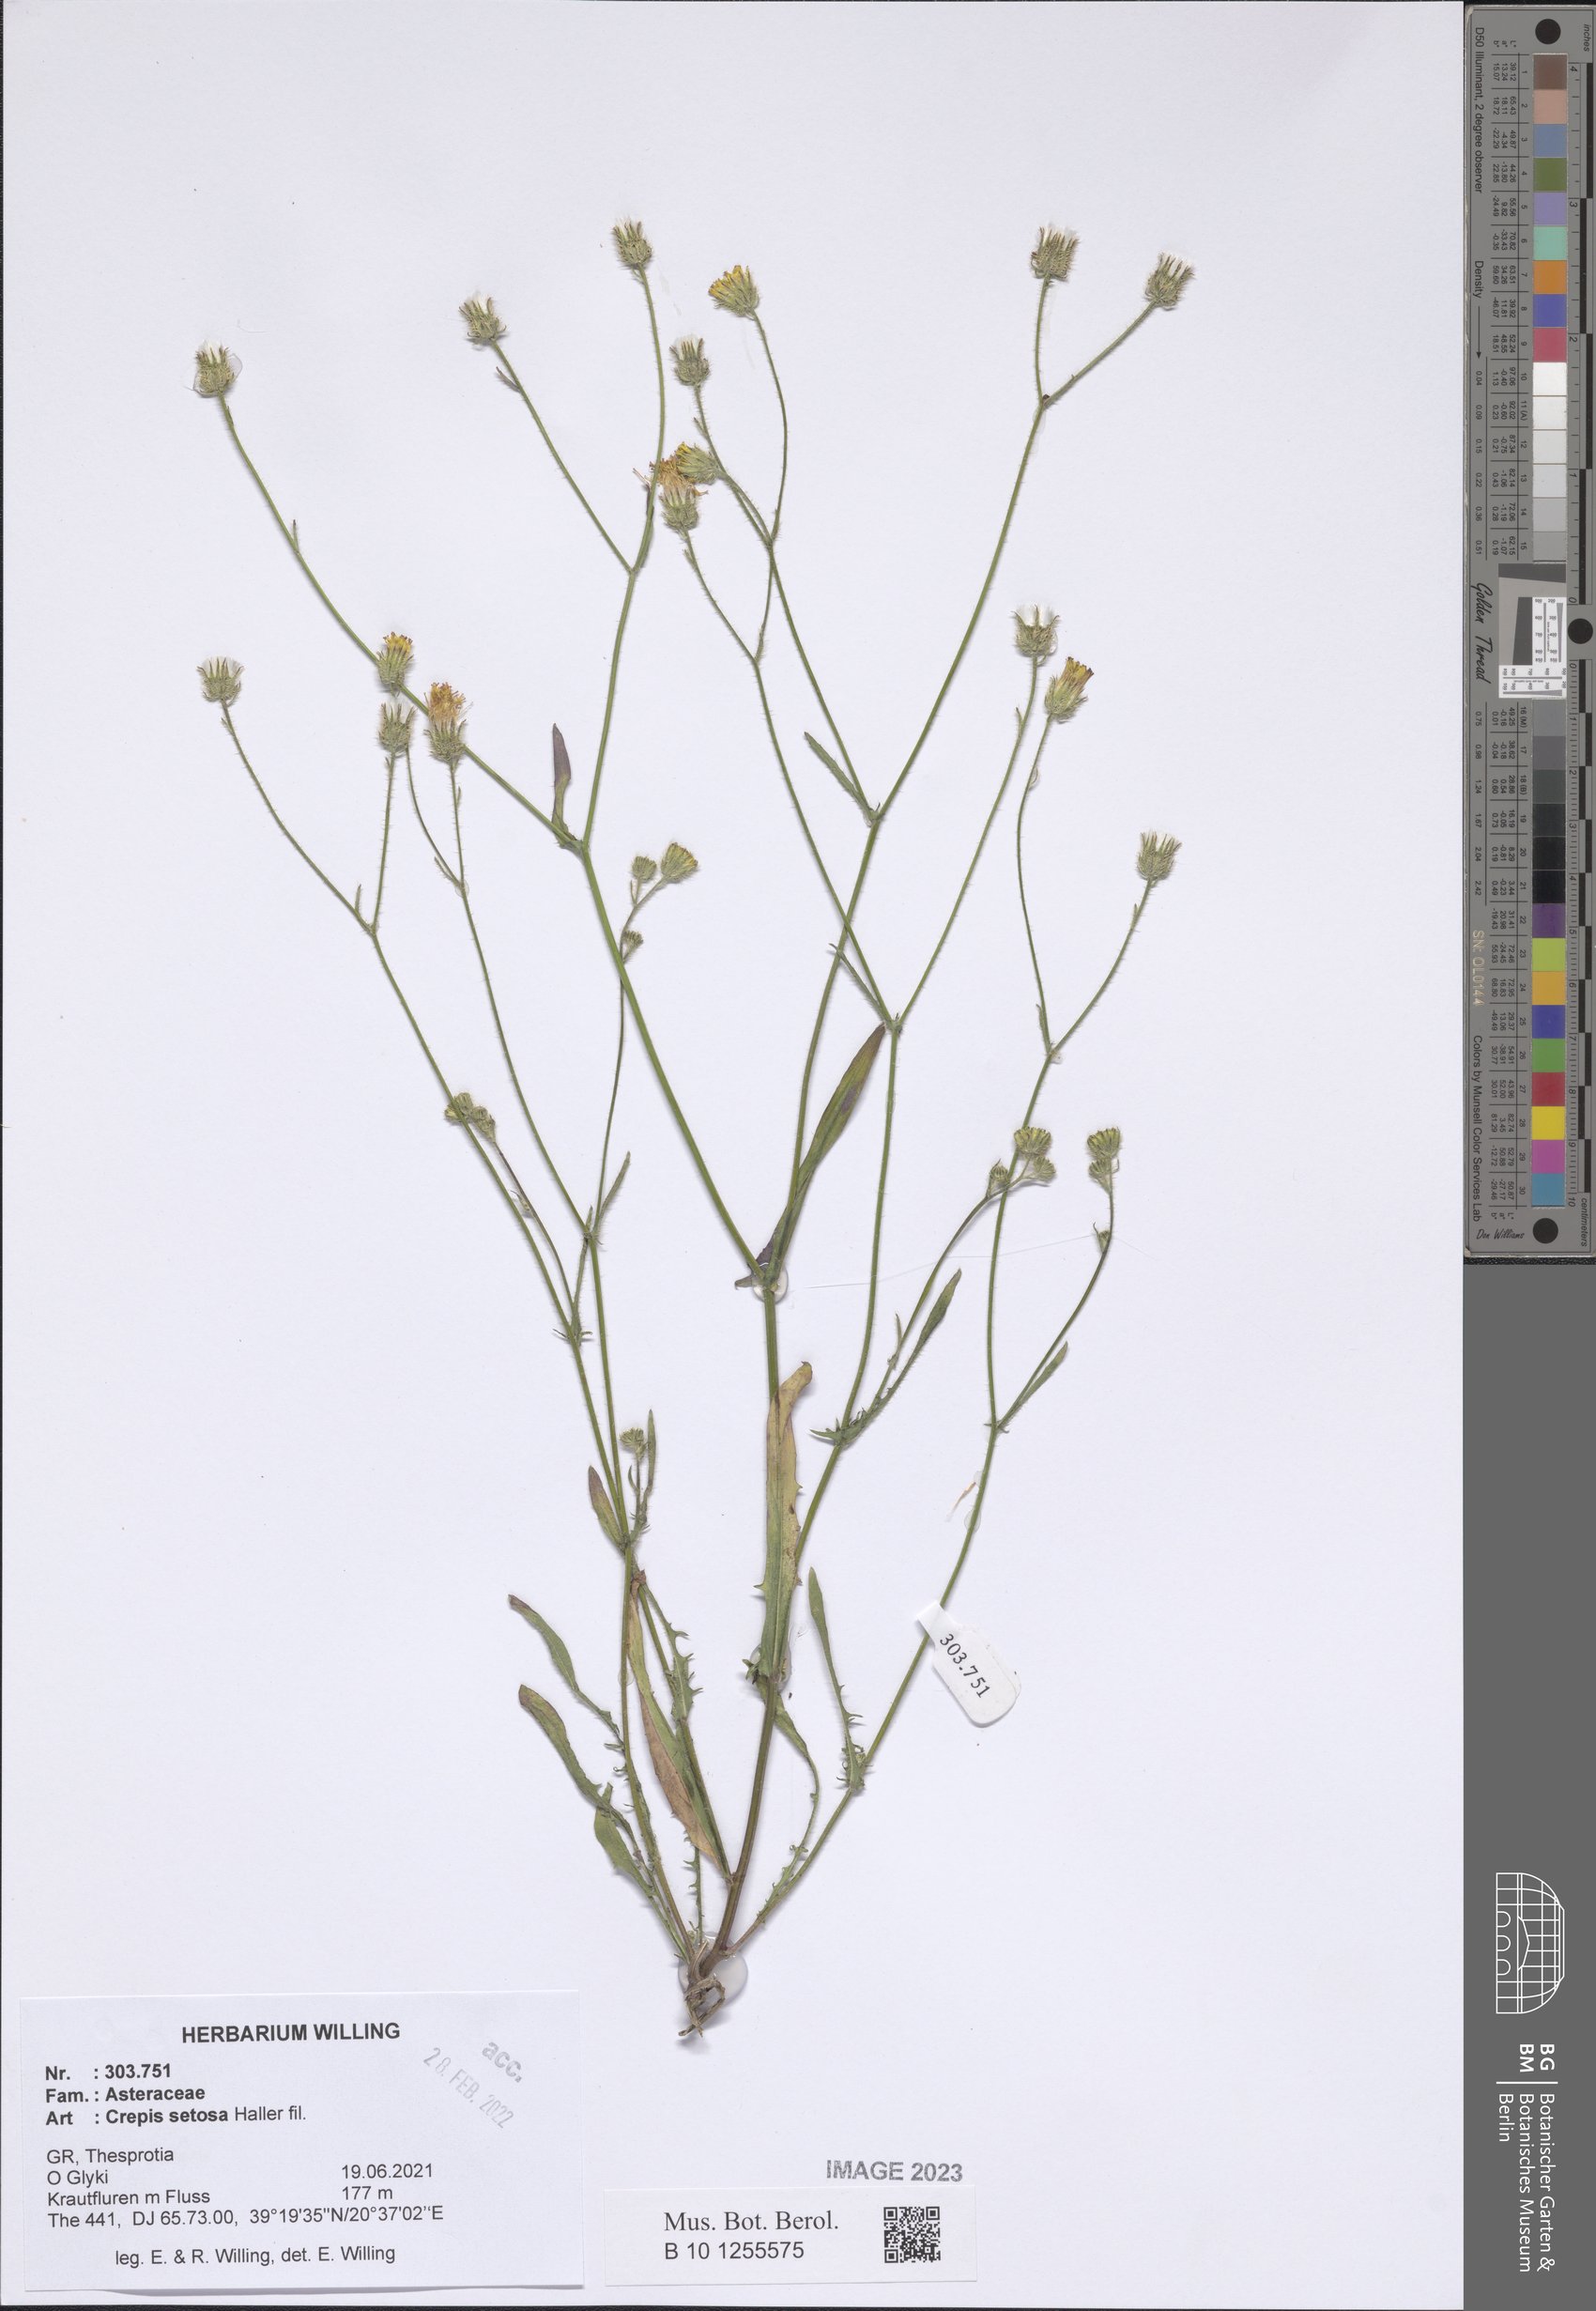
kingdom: Plantae
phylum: Tracheophyta
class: Magnoliopsida
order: Asterales
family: Asteraceae
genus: Crepis
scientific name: Crepis setosa
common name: Bristly hawk's-beard
